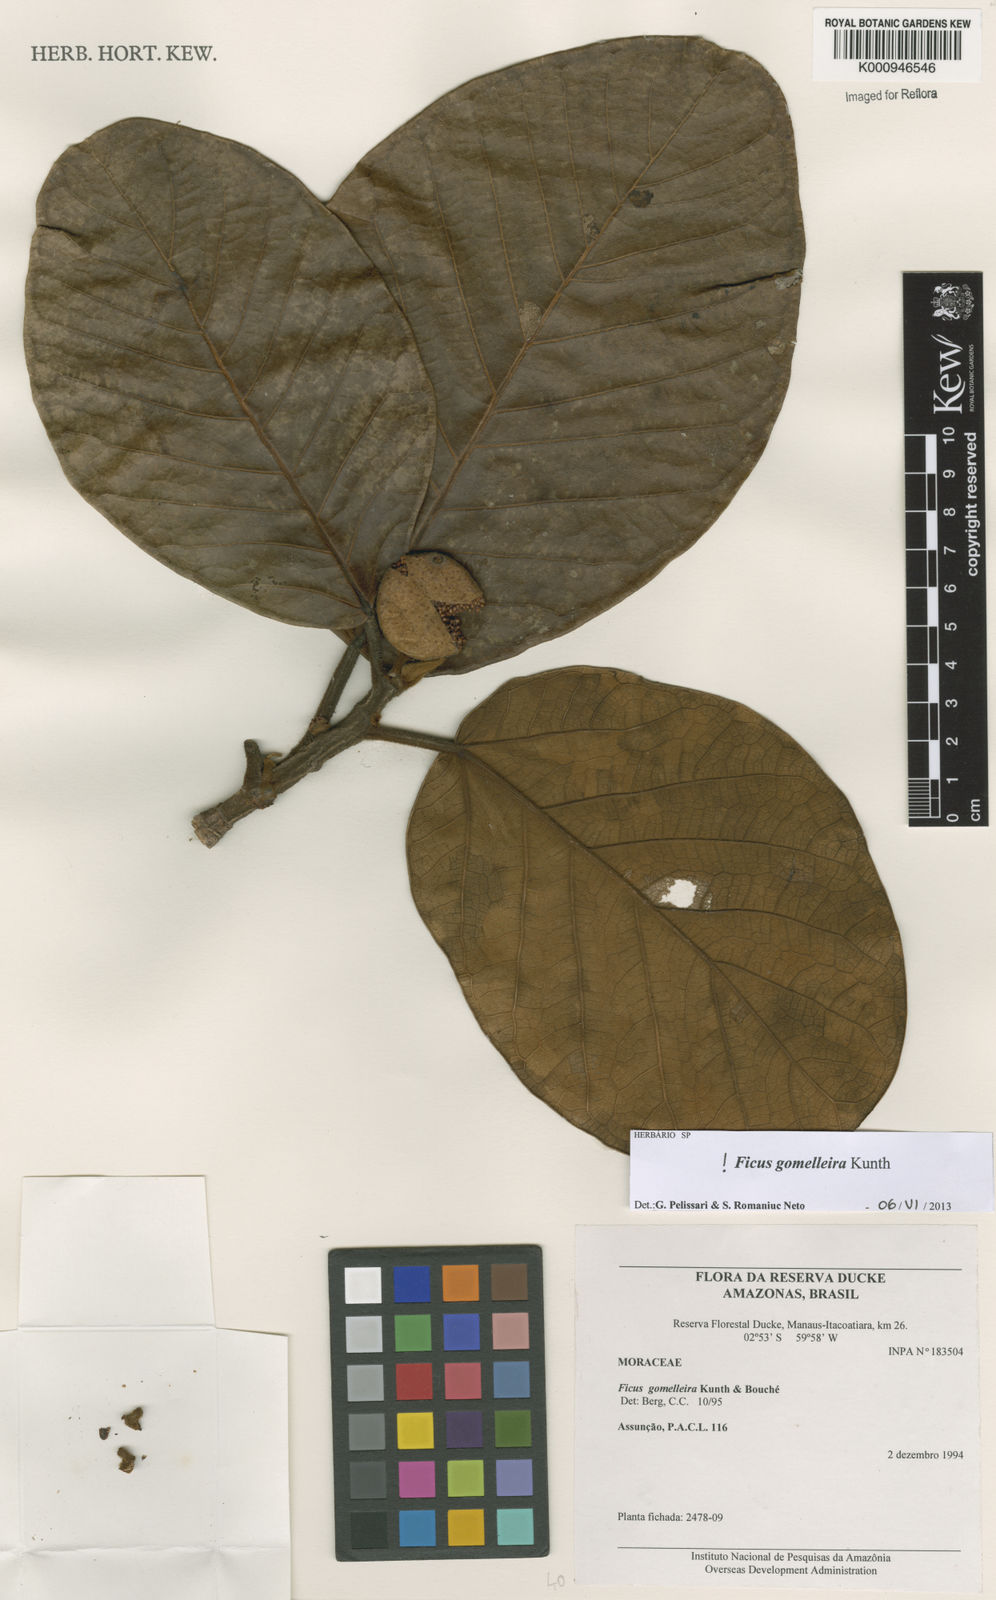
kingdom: Plantae
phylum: Tracheophyta
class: Magnoliopsida
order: Rosales
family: Moraceae
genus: Ficus
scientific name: Ficus gomelleira
